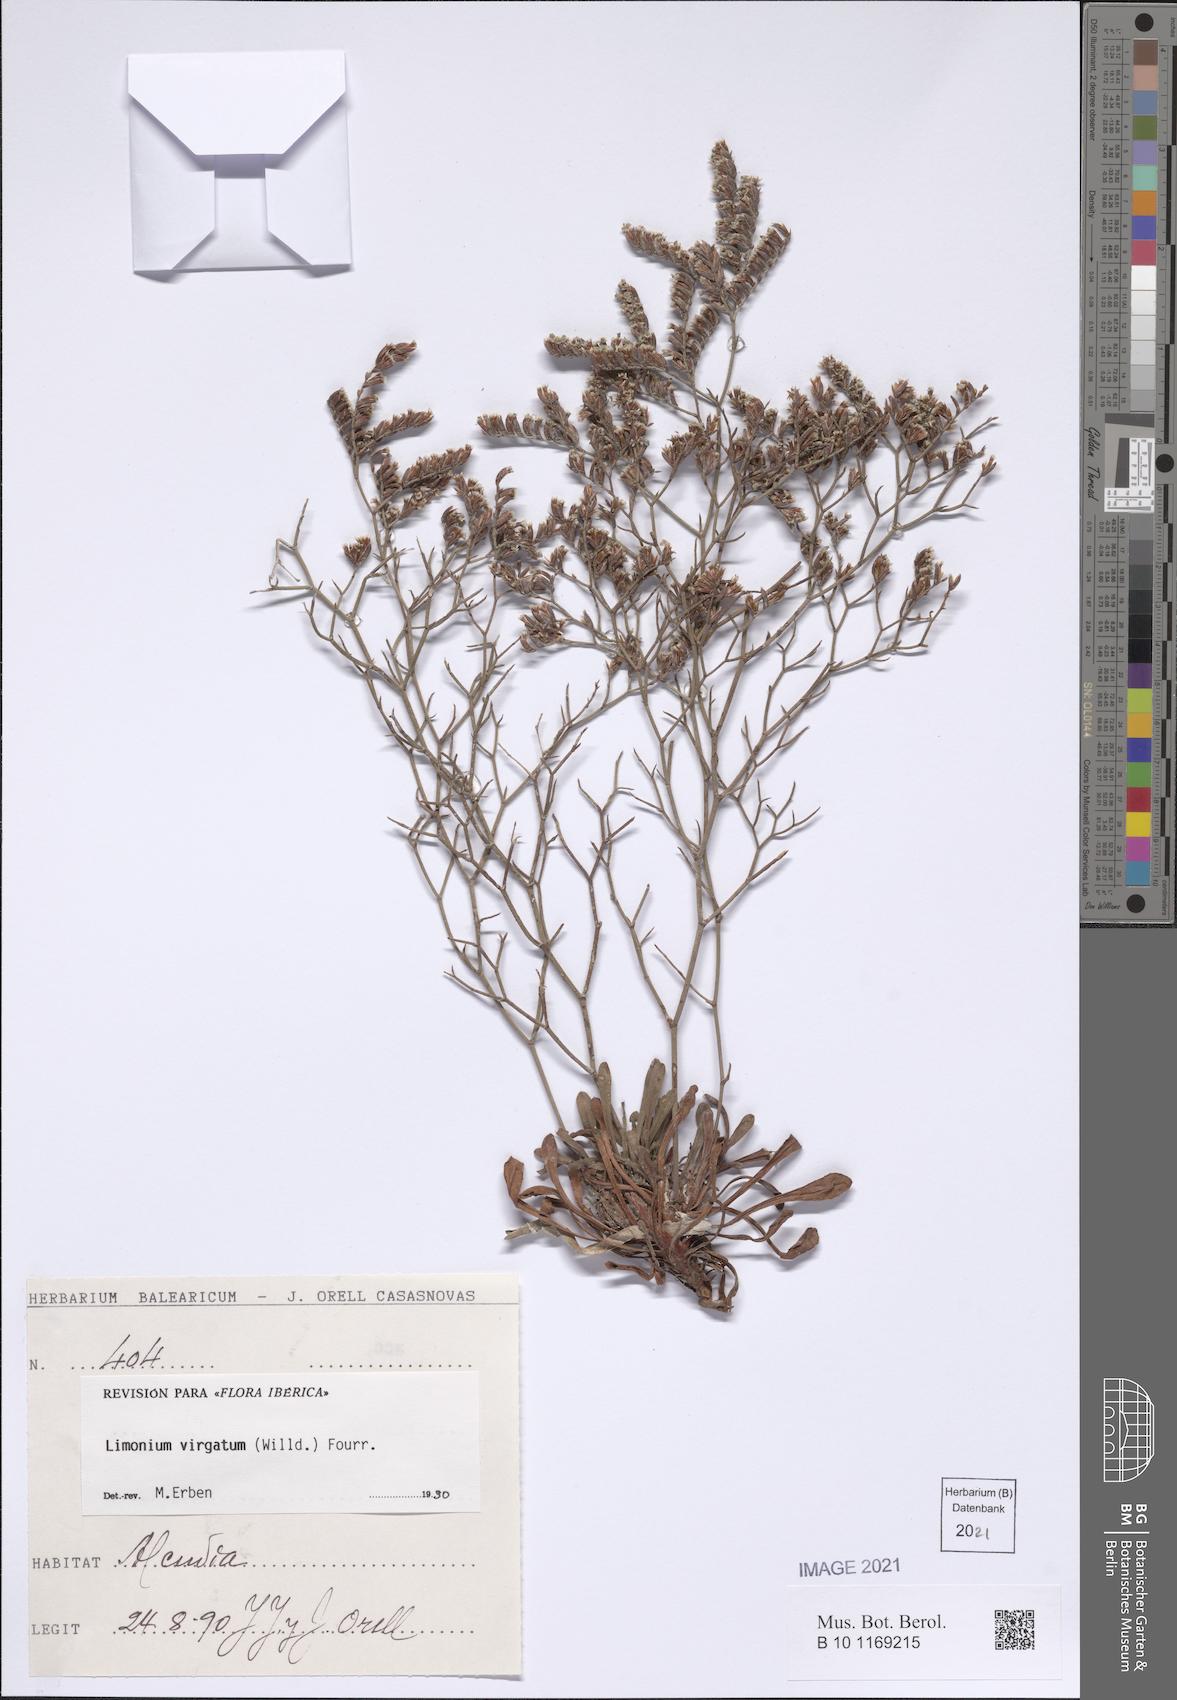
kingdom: Plantae
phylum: Tracheophyta
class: Magnoliopsida
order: Caryophyllales
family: Plumbaginaceae
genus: Limonium
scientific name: Limonium virgatum
